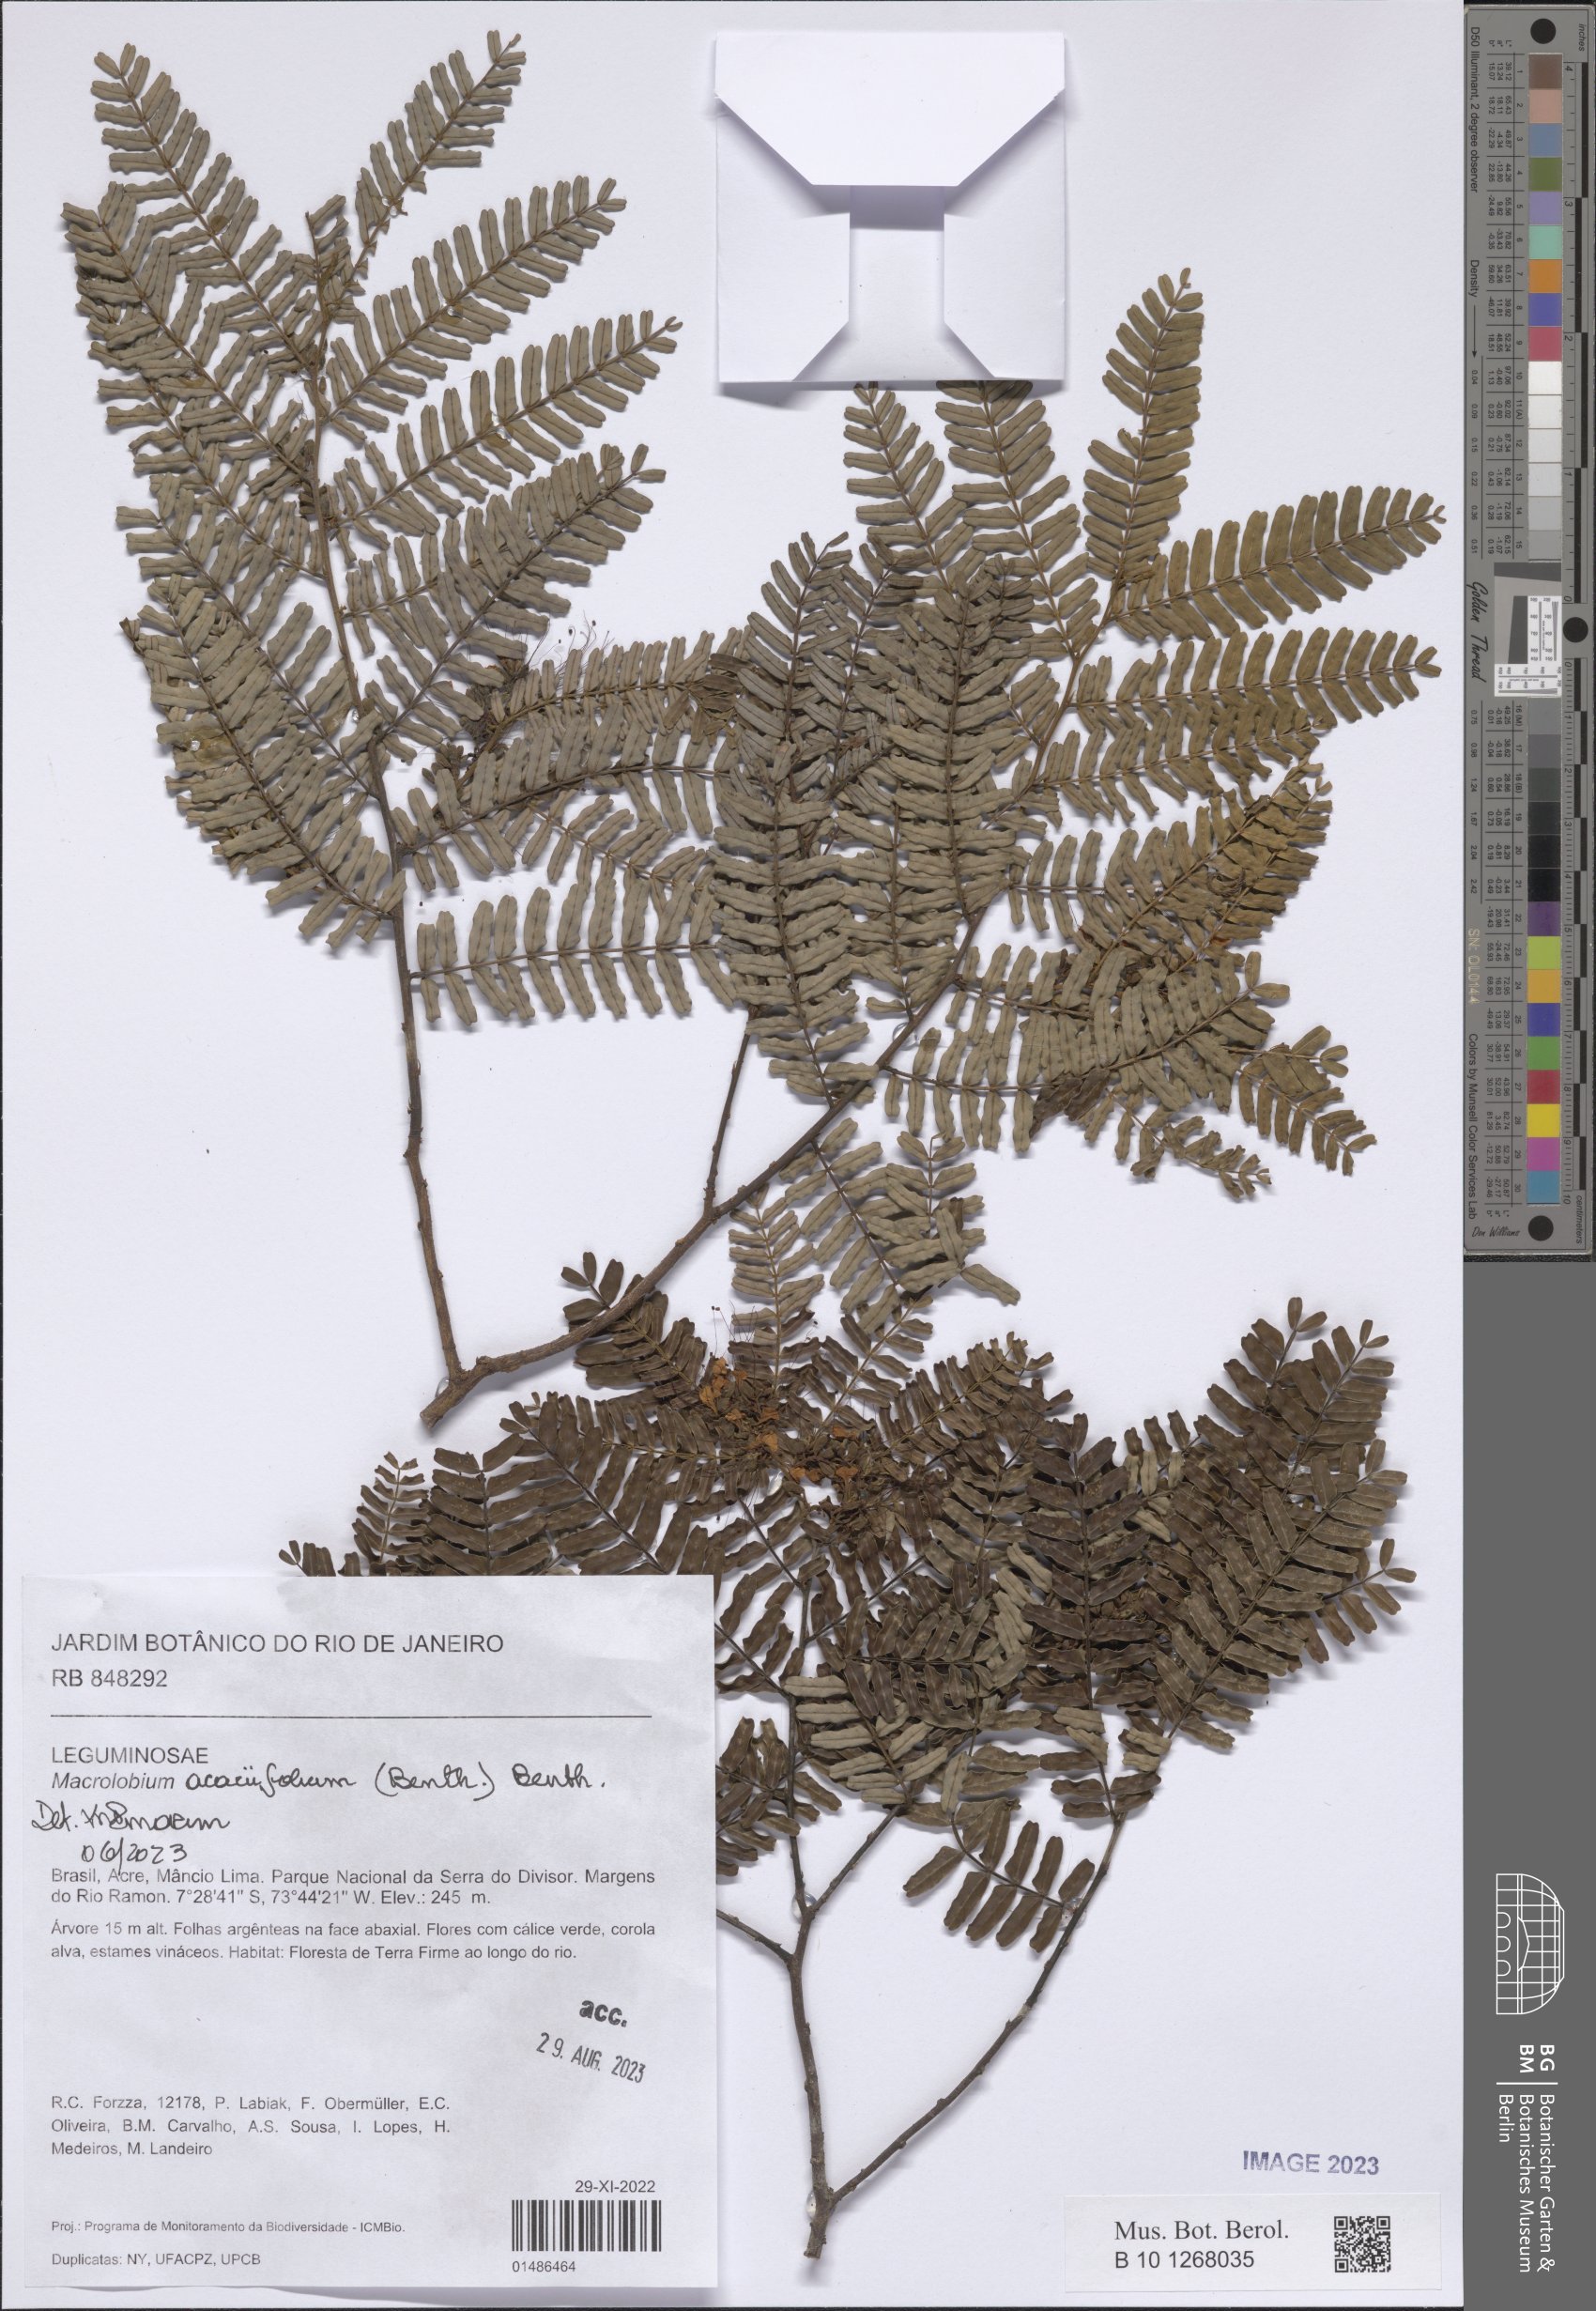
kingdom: Plantae
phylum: Tracheophyta
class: Magnoliopsida
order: Fabales
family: Fabaceae
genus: Macrolobium
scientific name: Macrolobium acaciifolium
